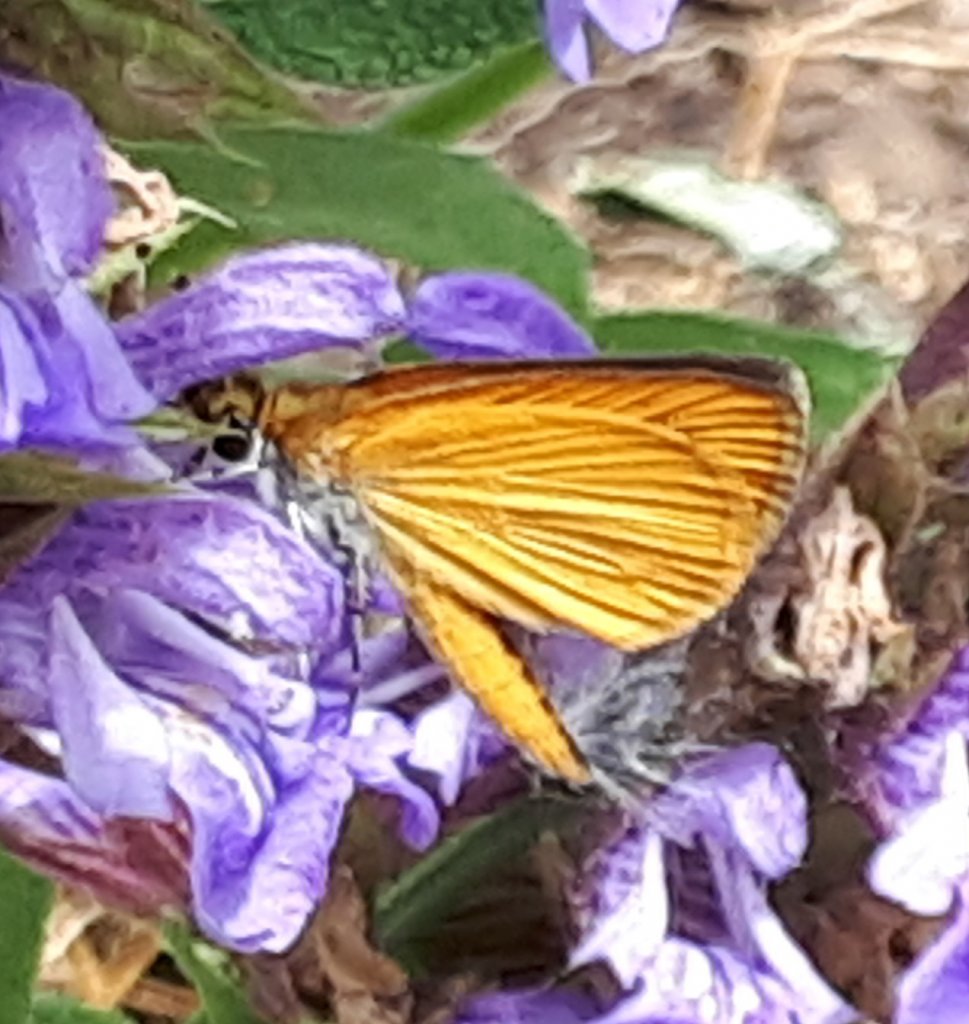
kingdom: Animalia
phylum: Arthropoda
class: Insecta
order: Lepidoptera
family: Hesperiidae
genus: Ancyloxypha
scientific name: Ancyloxypha numitor
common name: Least Skipper
